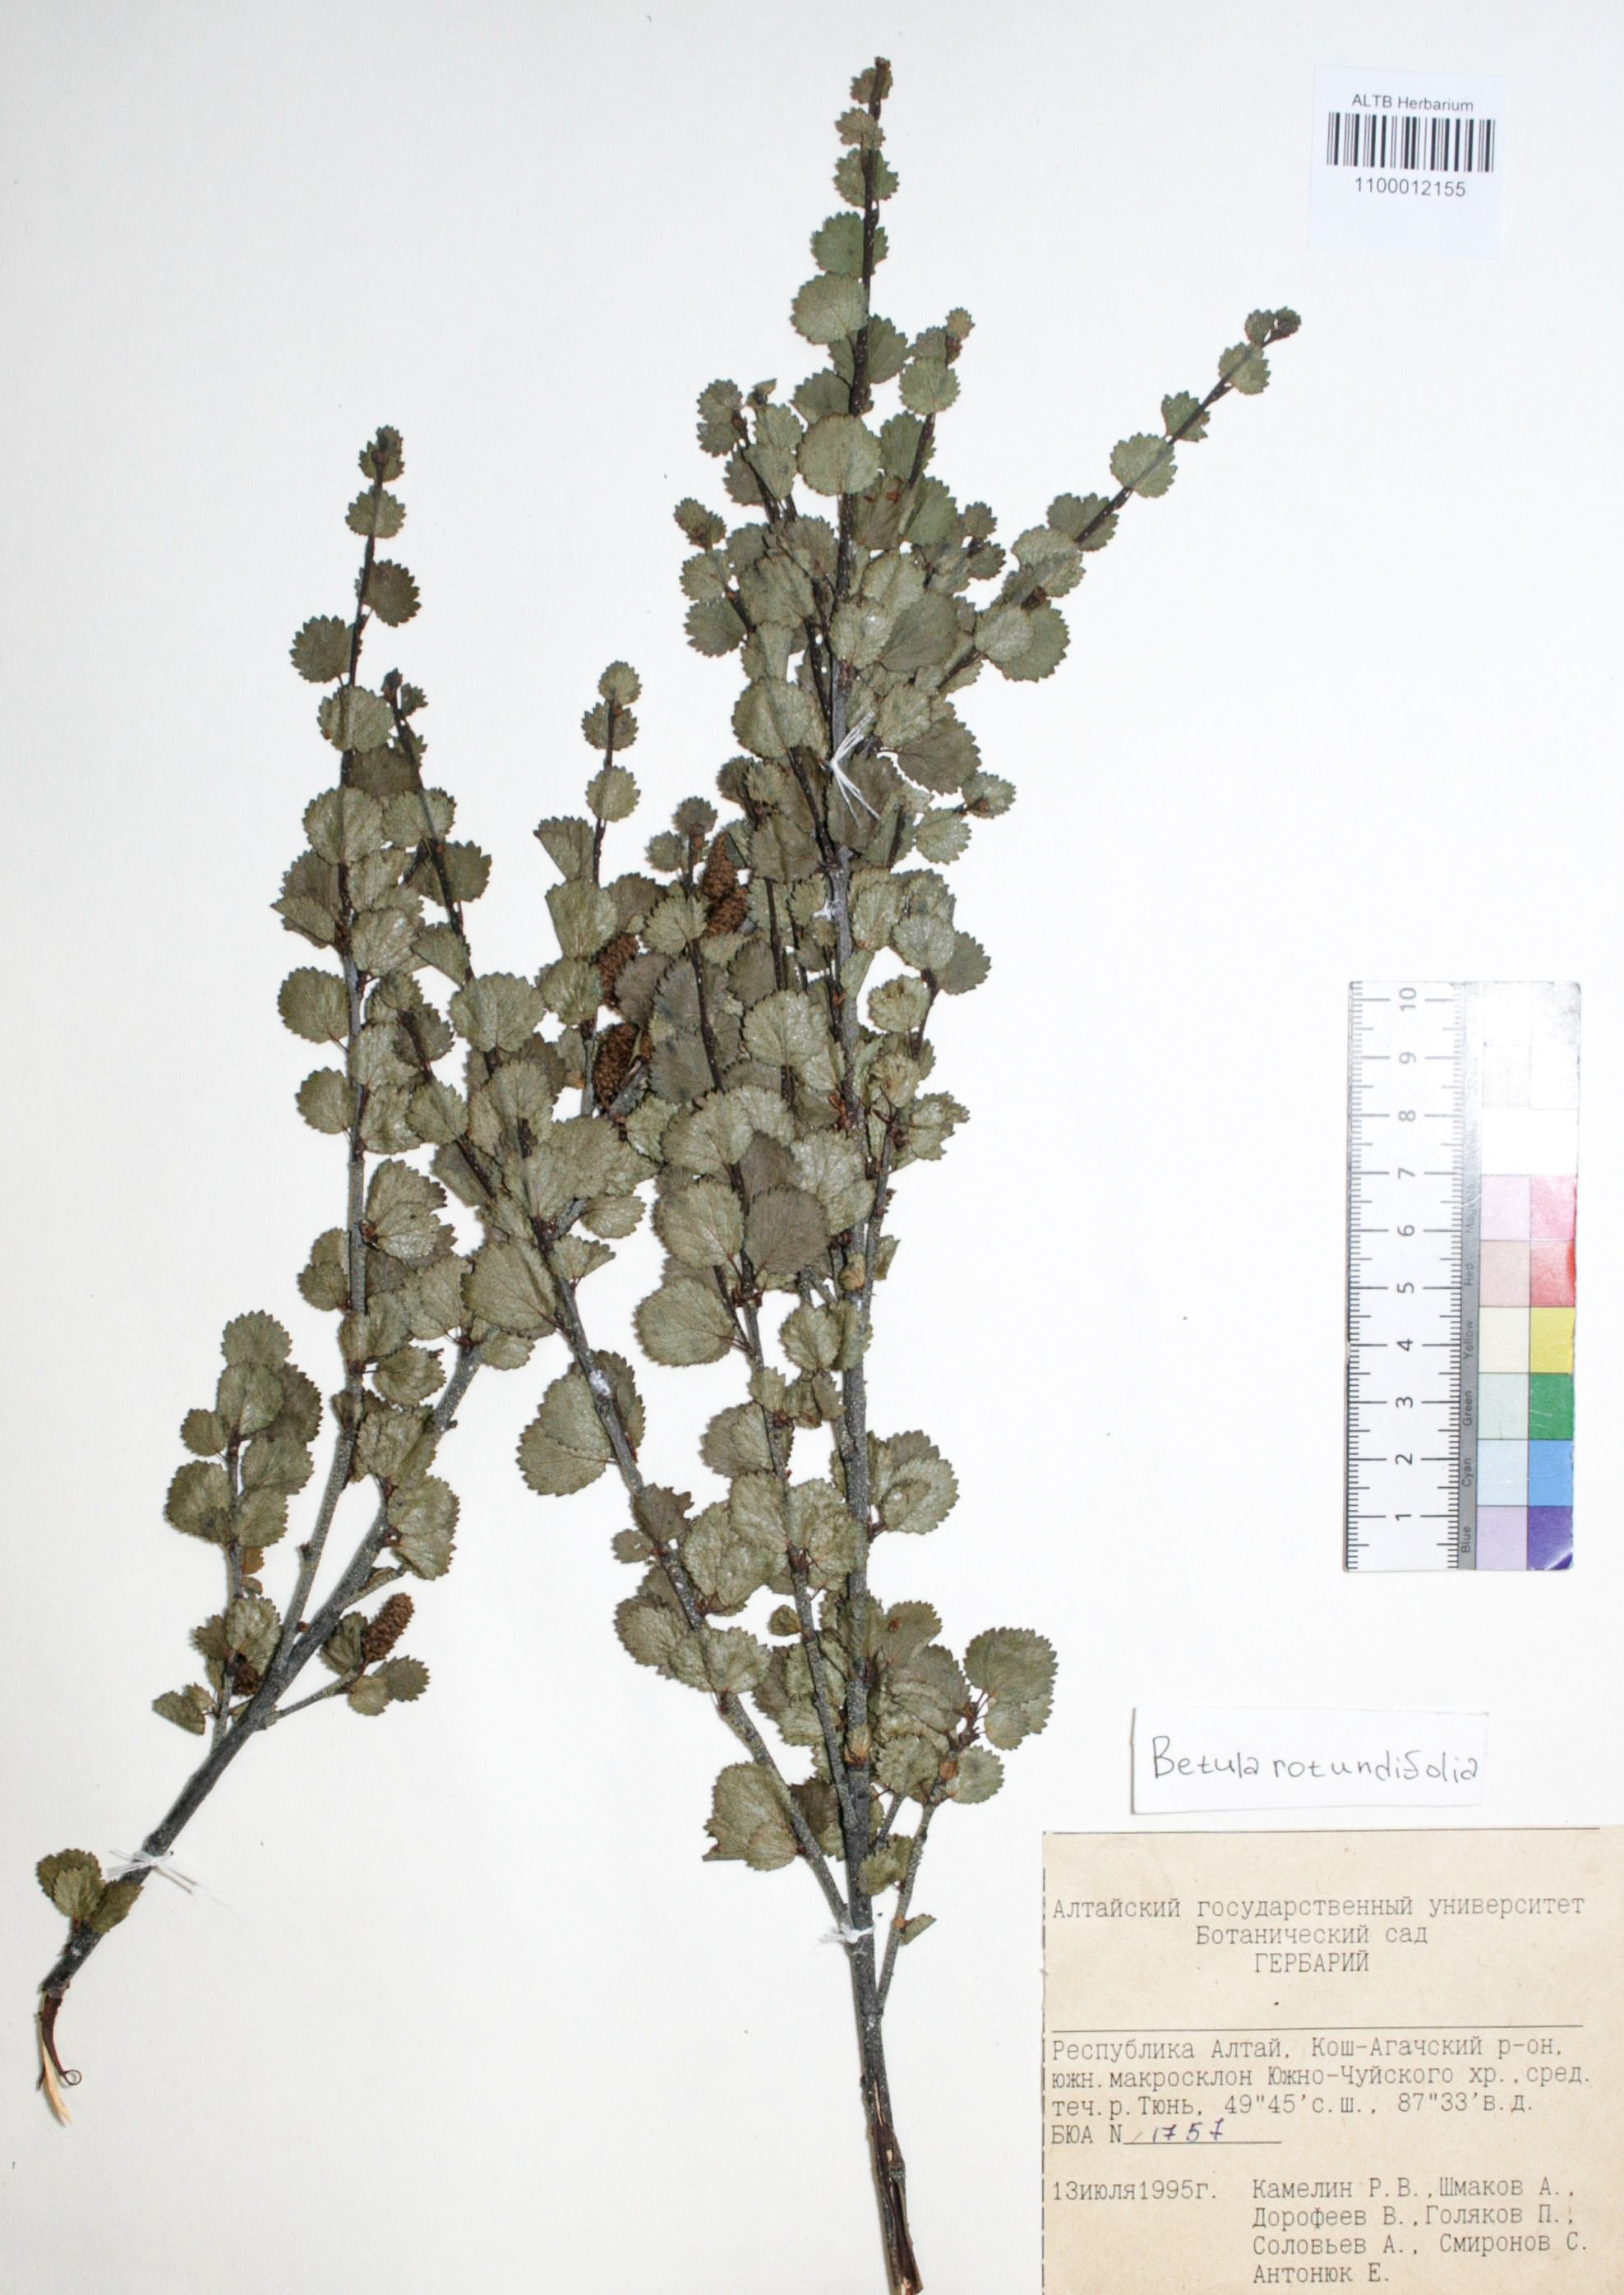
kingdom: Plantae
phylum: Tracheophyta
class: Magnoliopsida
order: Fagales
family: Betulaceae
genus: Betula
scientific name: Betula glandulosa
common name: Dwarf birch
